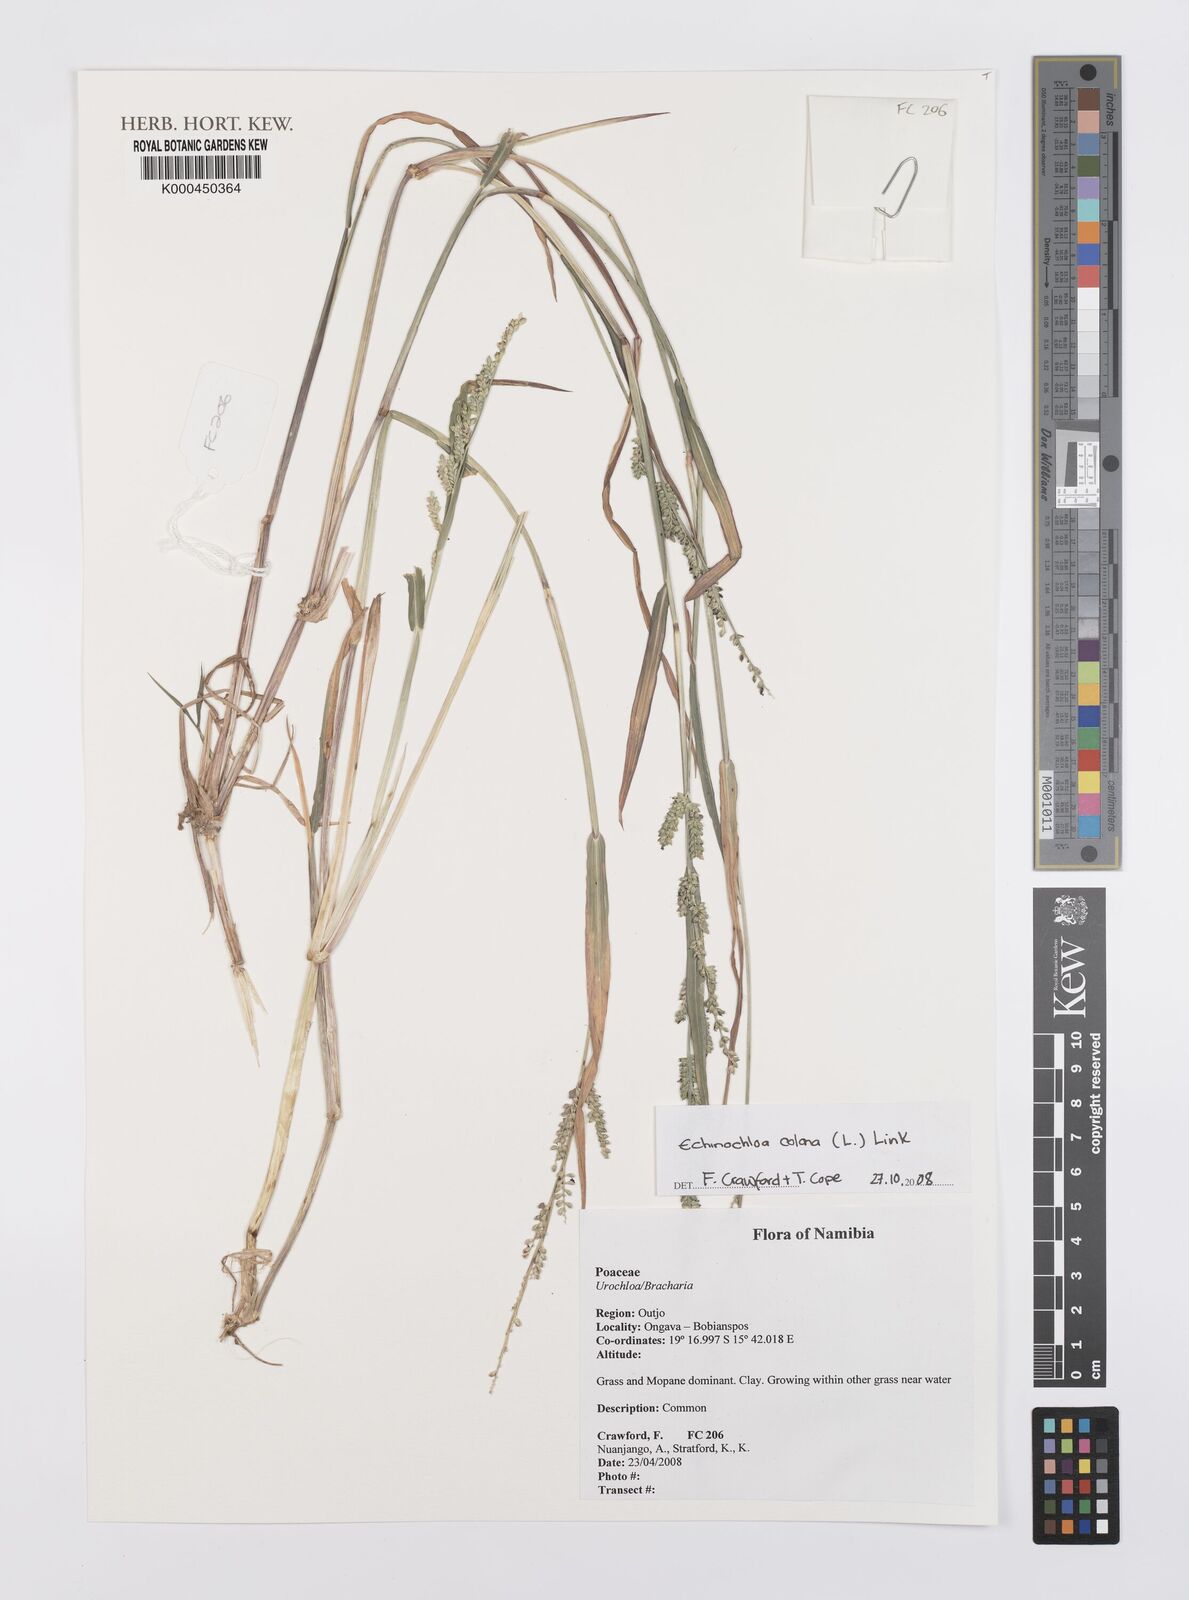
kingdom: Plantae
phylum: Tracheophyta
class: Liliopsida
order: Poales
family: Poaceae
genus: Echinochloa
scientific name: Echinochloa colonum
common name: Jungle rice
